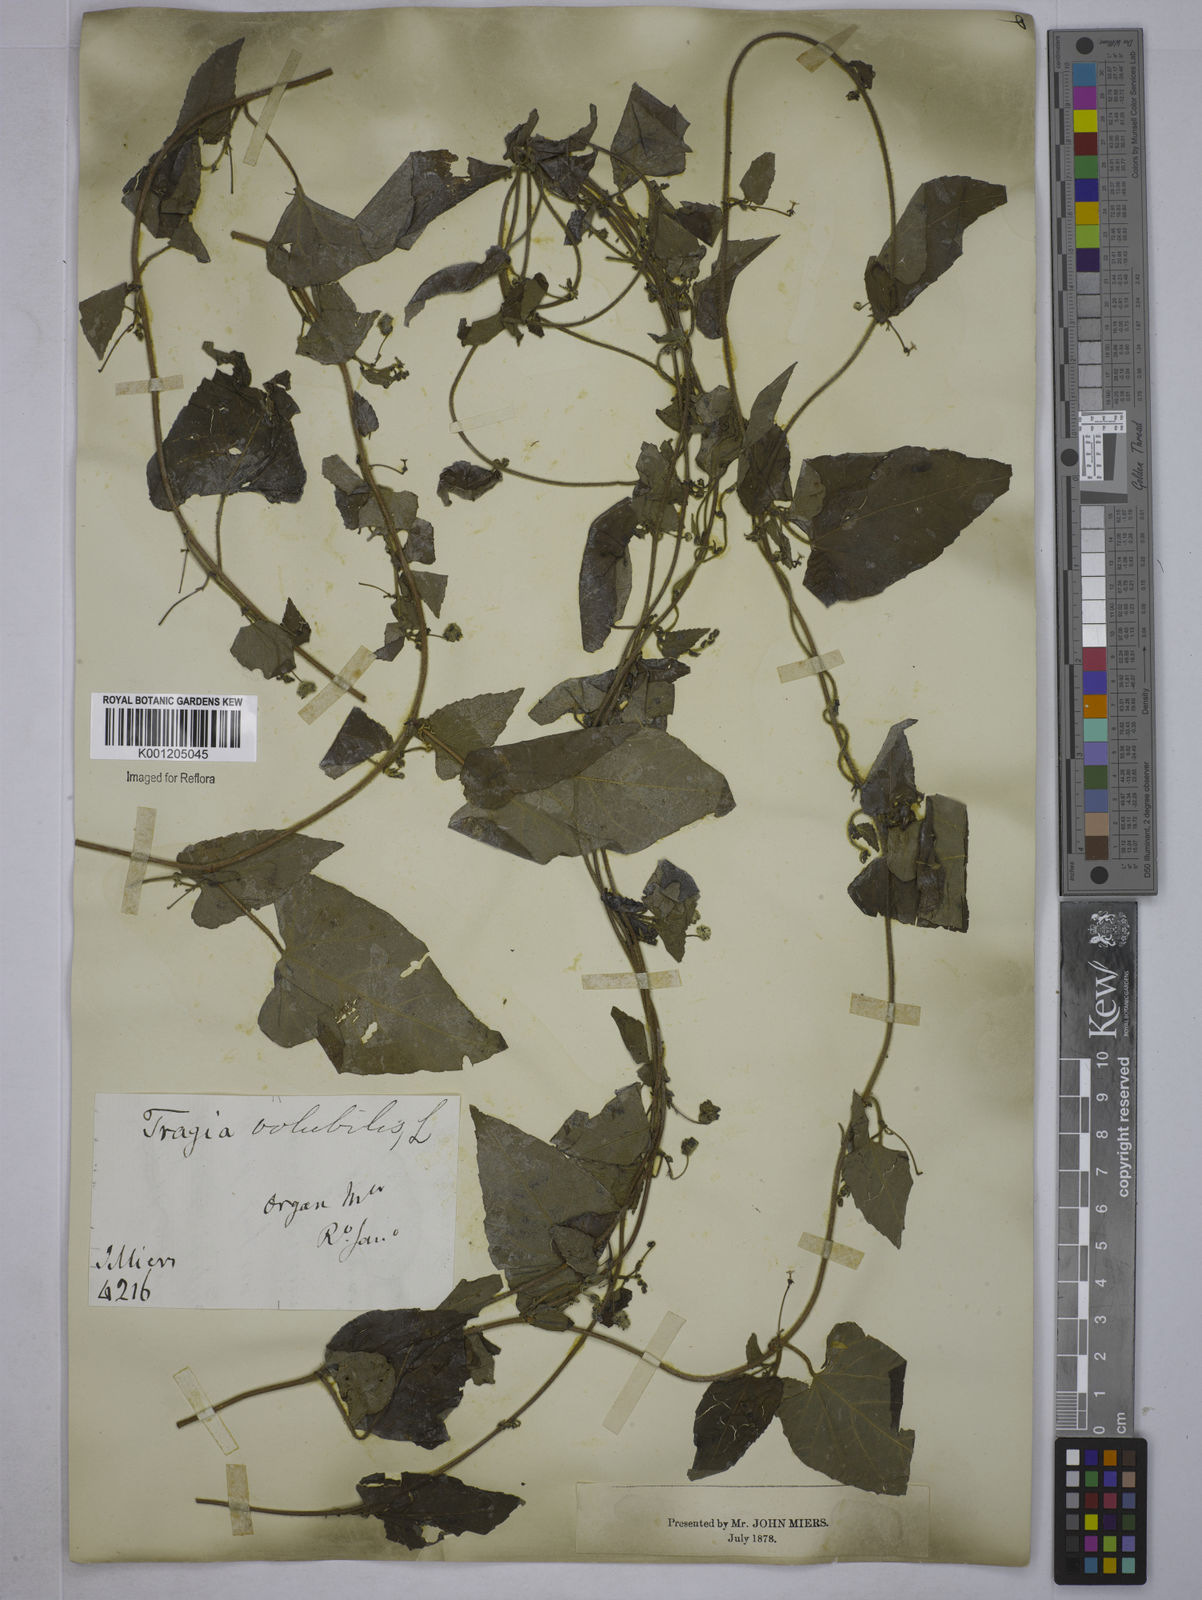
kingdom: Plantae
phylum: Tracheophyta
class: Magnoliopsida
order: Malpighiales
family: Euphorbiaceae
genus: Tragia
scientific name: Tragia volubilis
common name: Twining cow-itch
